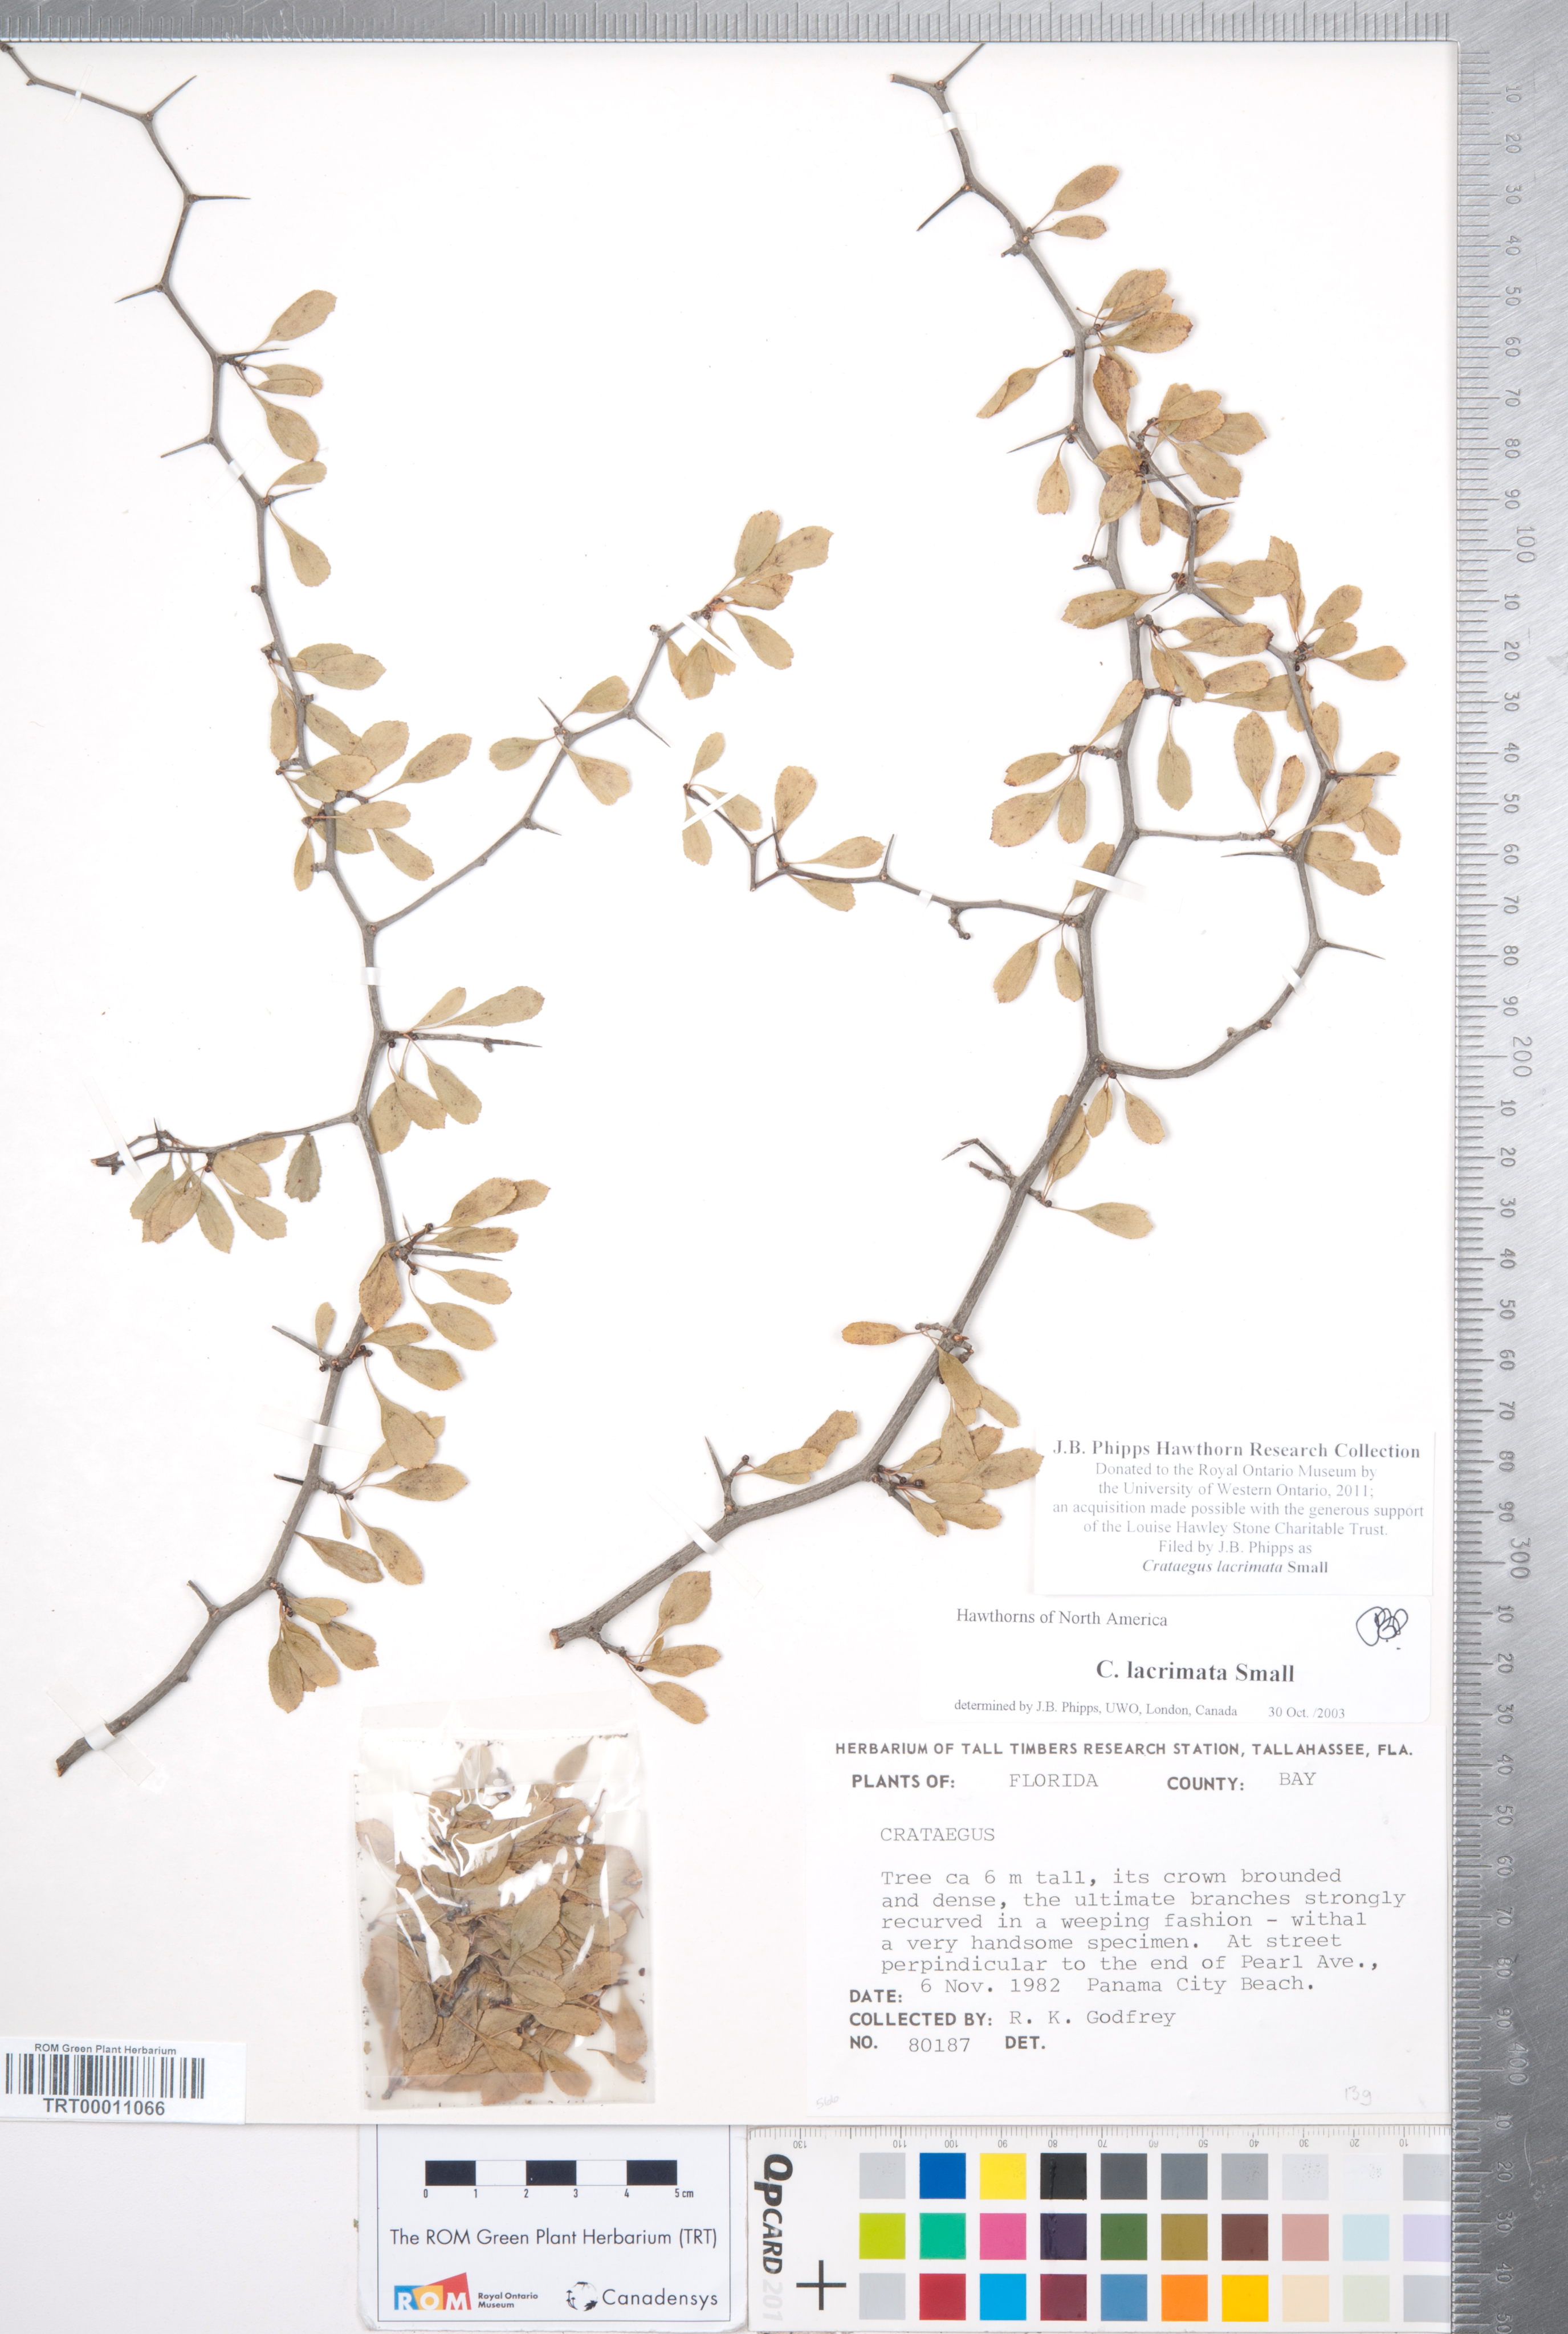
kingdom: Plantae
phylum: Tracheophyta
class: Magnoliopsida
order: Rosales
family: Rosaceae
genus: Crataegus
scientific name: Crataegus lacrimata
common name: Weeping hawthorn
